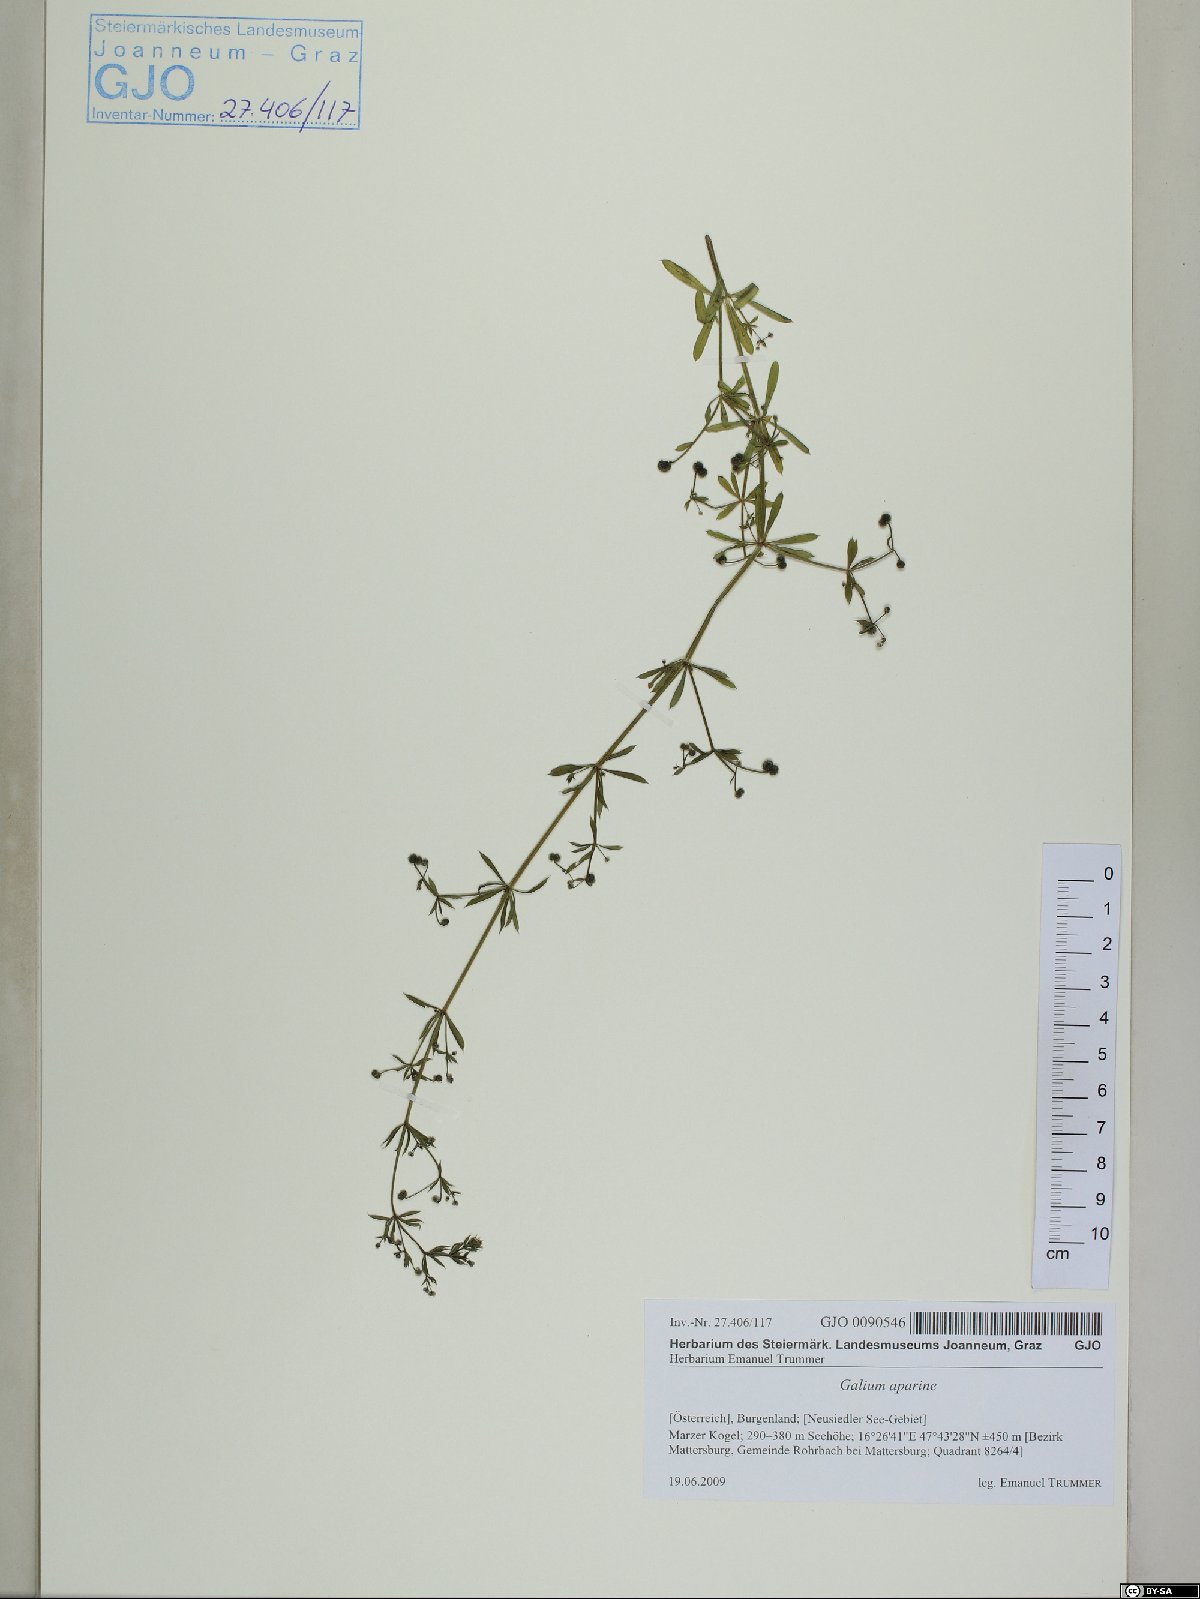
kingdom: Plantae
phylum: Tracheophyta
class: Magnoliopsida
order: Gentianales
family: Rubiaceae
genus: Galium
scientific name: Galium aparine
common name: Cleavers
